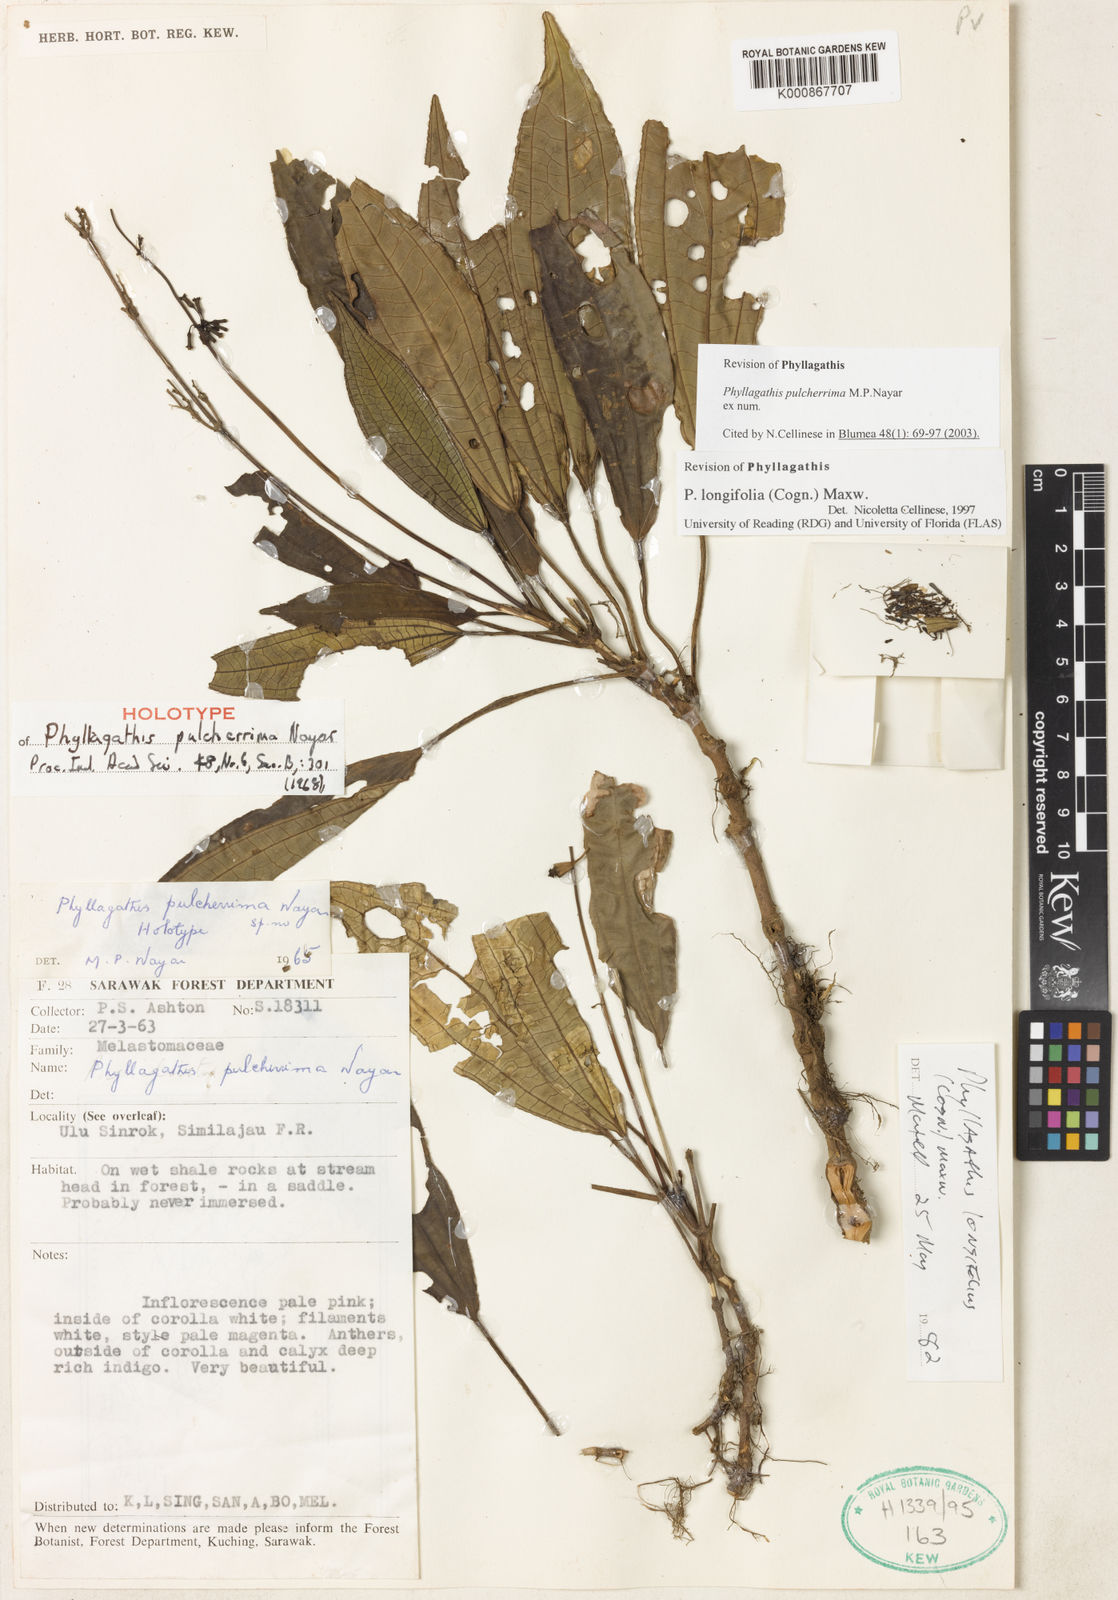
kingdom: Plantae
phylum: Tracheophyta
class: Magnoliopsida
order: Myrtales
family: Melastomataceae
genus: Phyllagathis
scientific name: Phyllagathis pulcherrima
